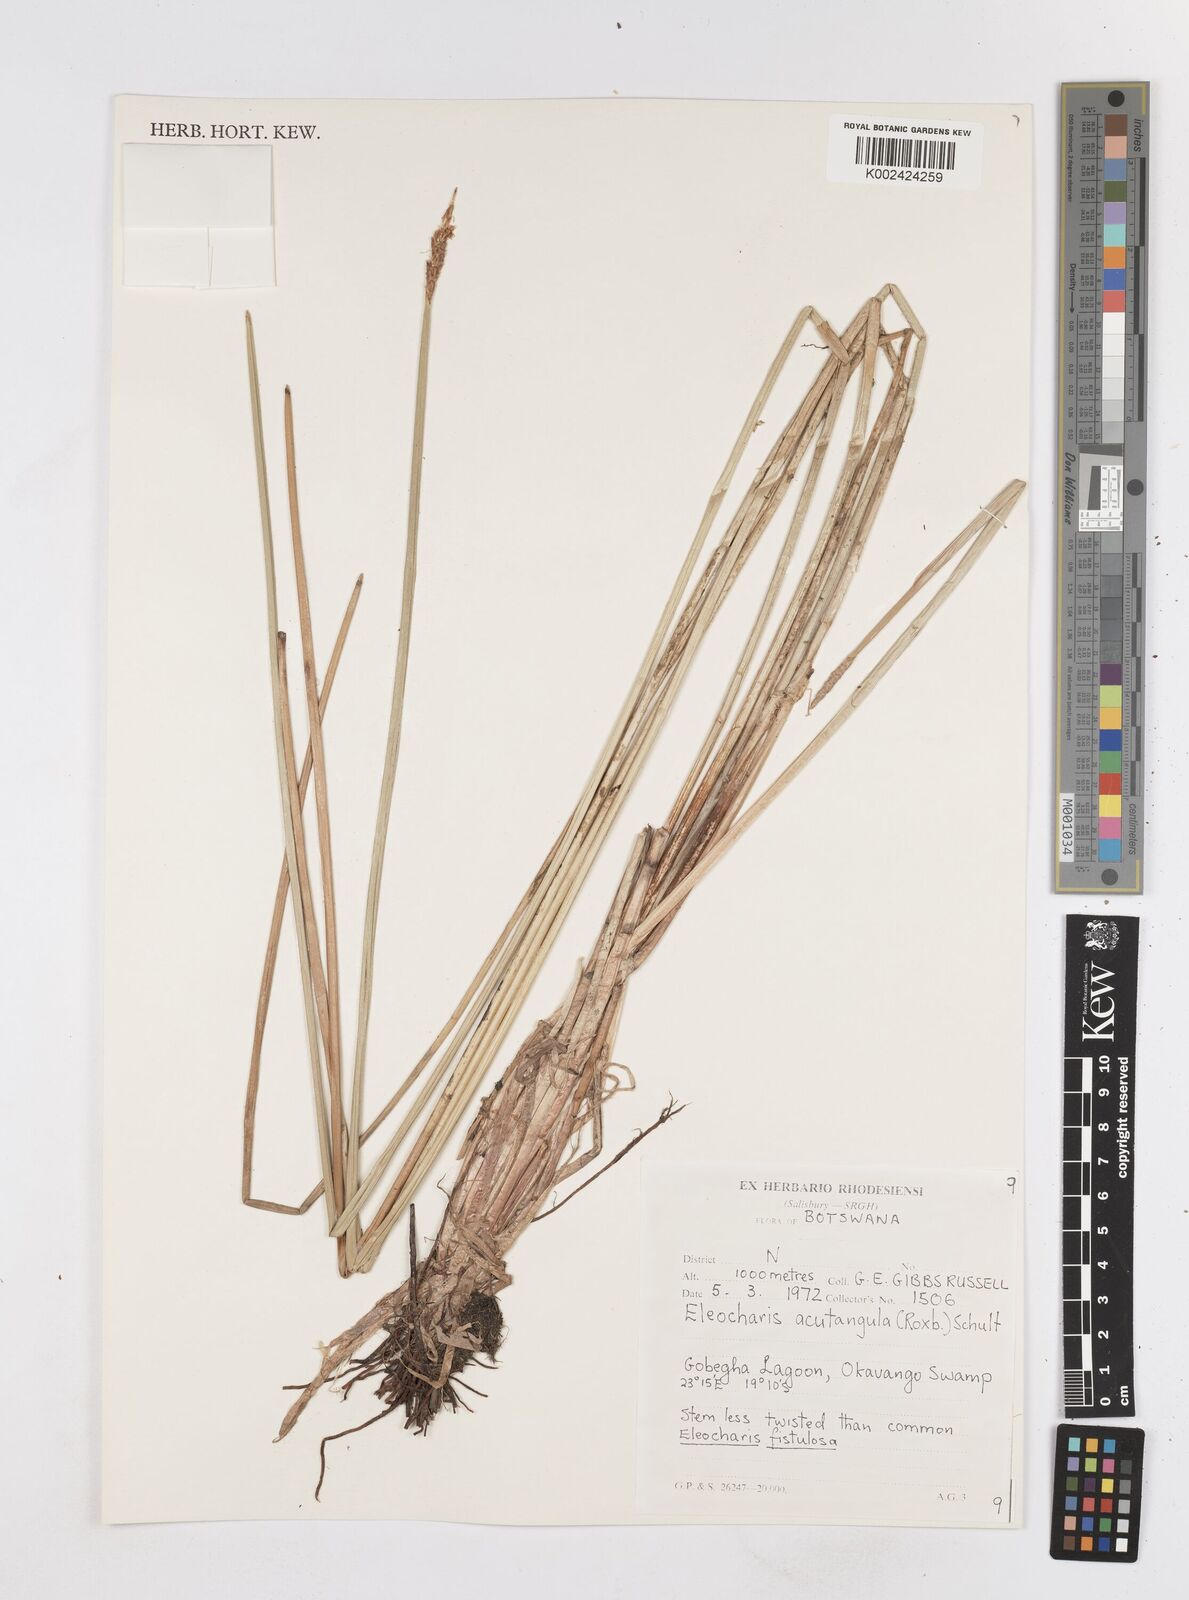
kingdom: Plantae
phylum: Tracheophyta
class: Liliopsida
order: Poales
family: Cyperaceae
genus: Eleocharis
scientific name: Eleocharis acutangula
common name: Acute spikerush
